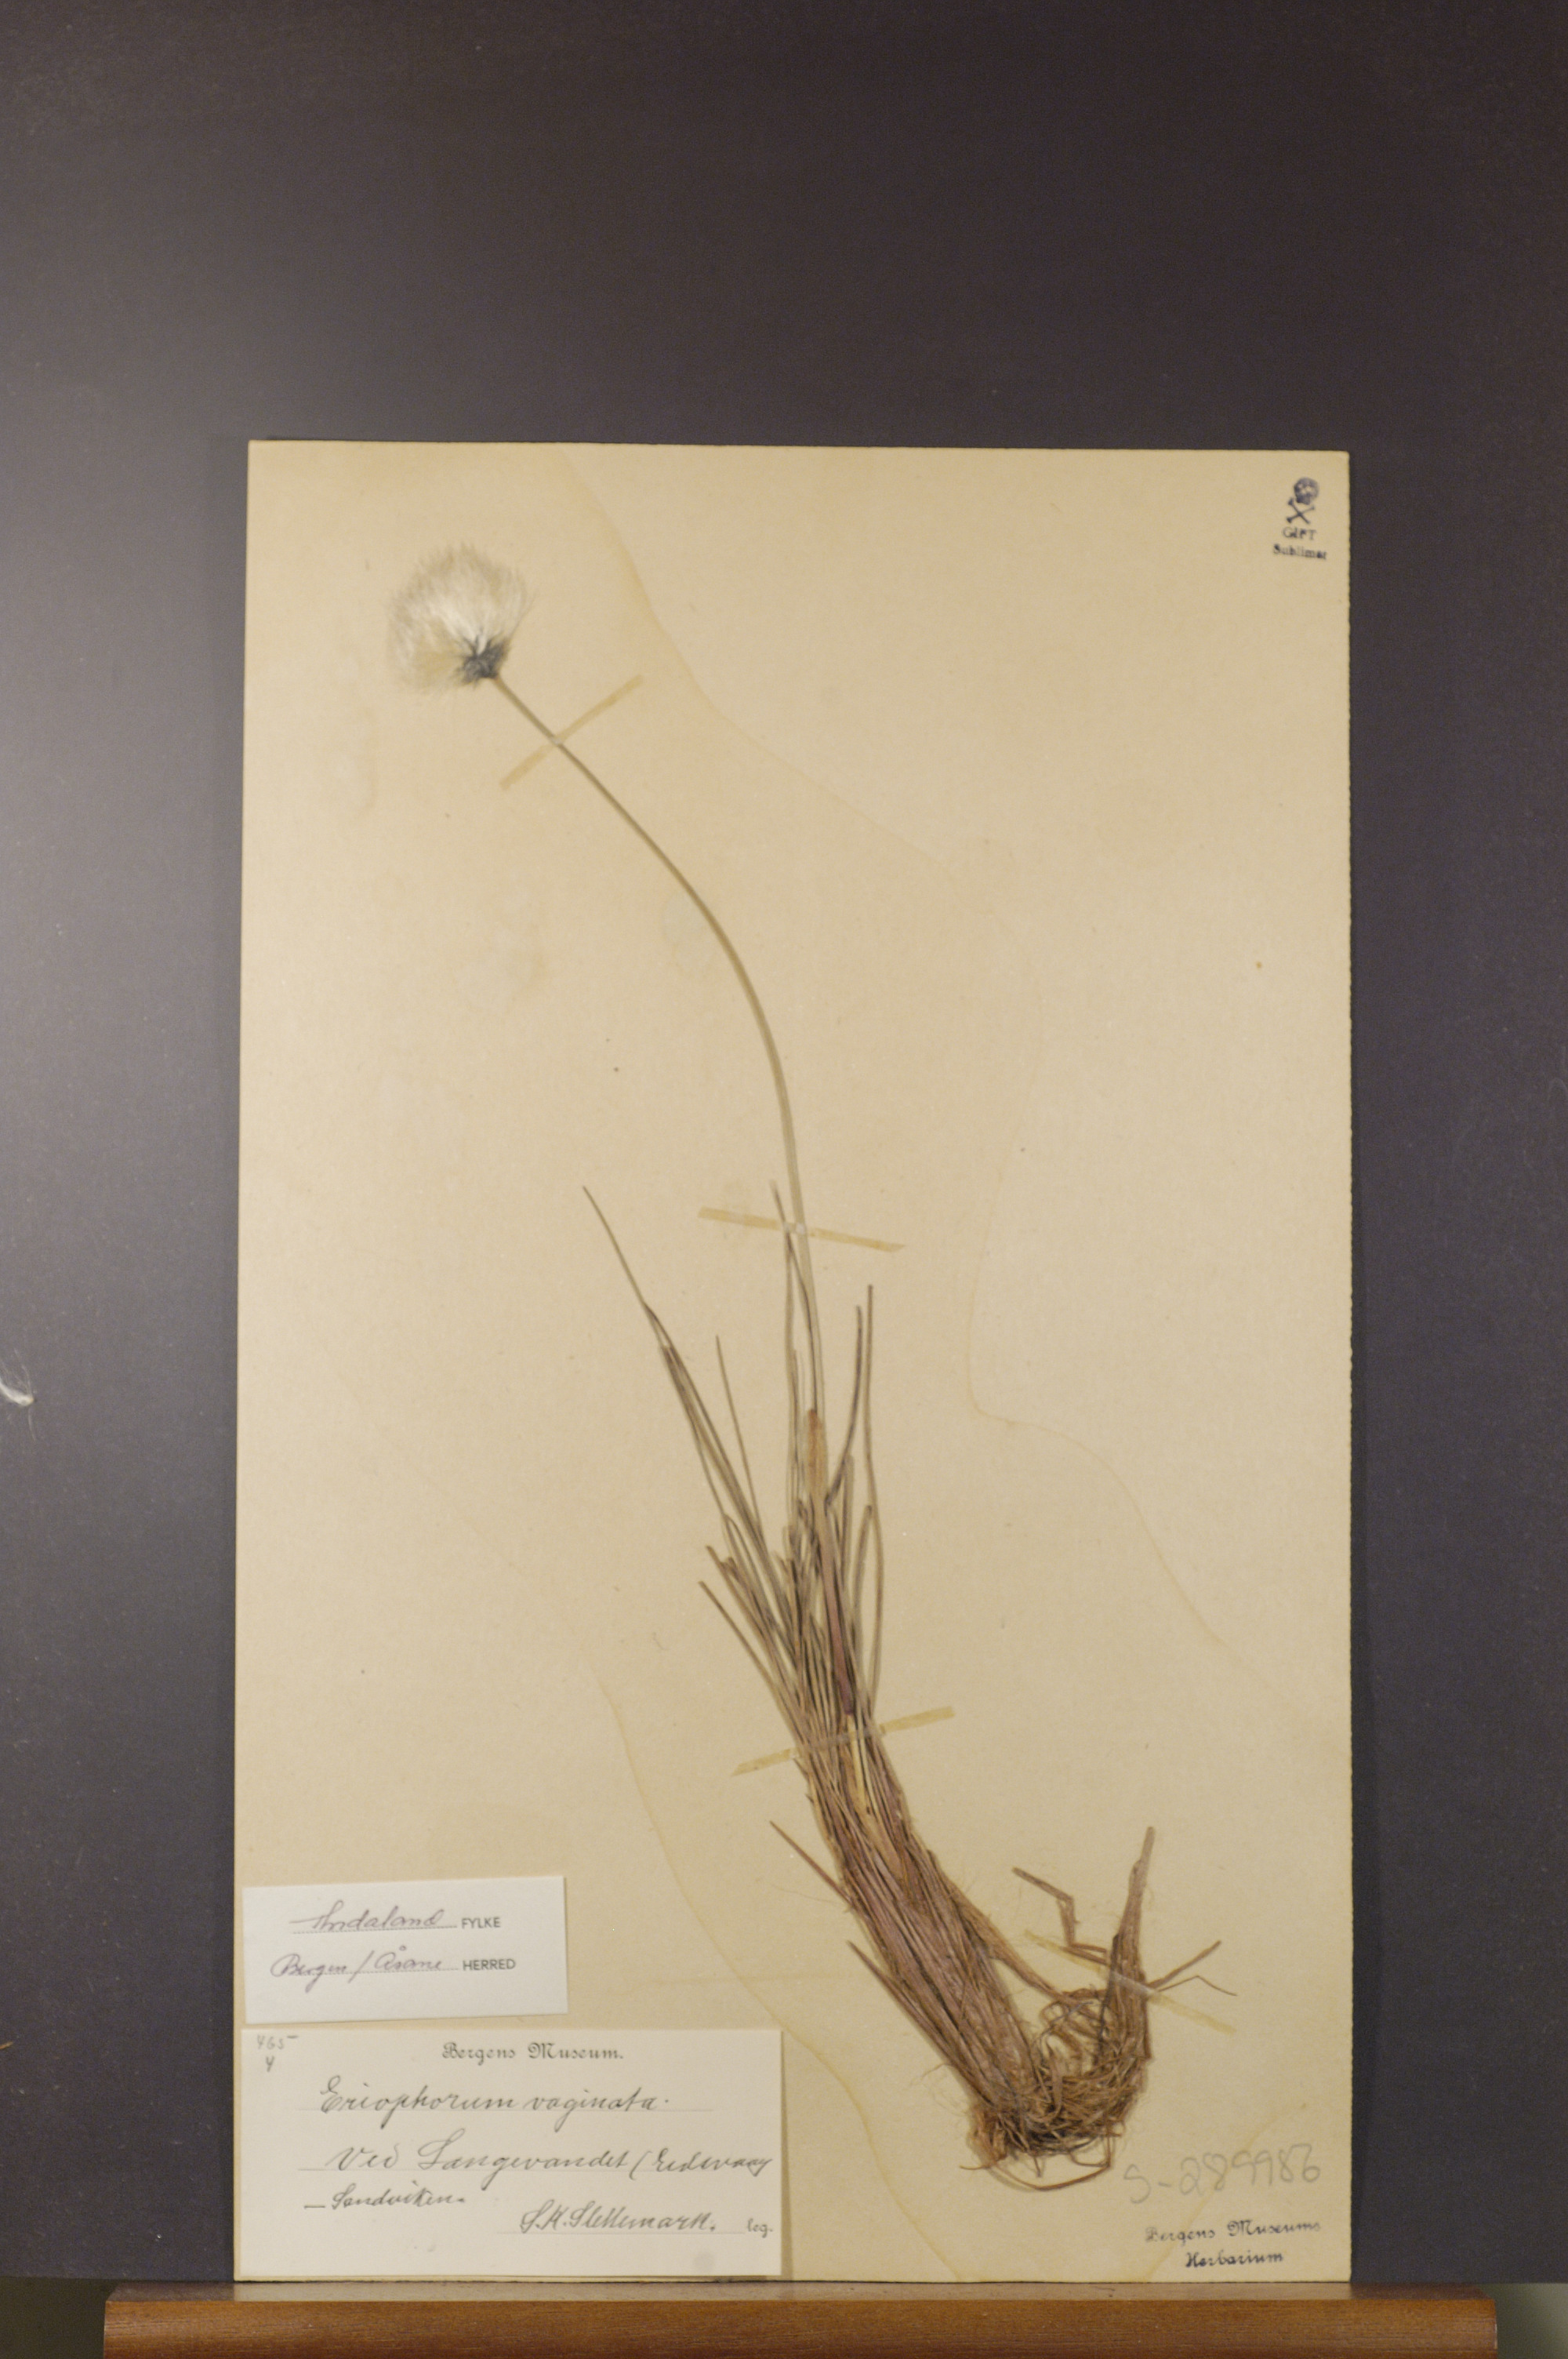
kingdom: Plantae
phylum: Tracheophyta
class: Liliopsida
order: Poales
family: Cyperaceae
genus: Eriophorum
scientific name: Eriophorum vaginatum
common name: Hare's-tail cottongrass
